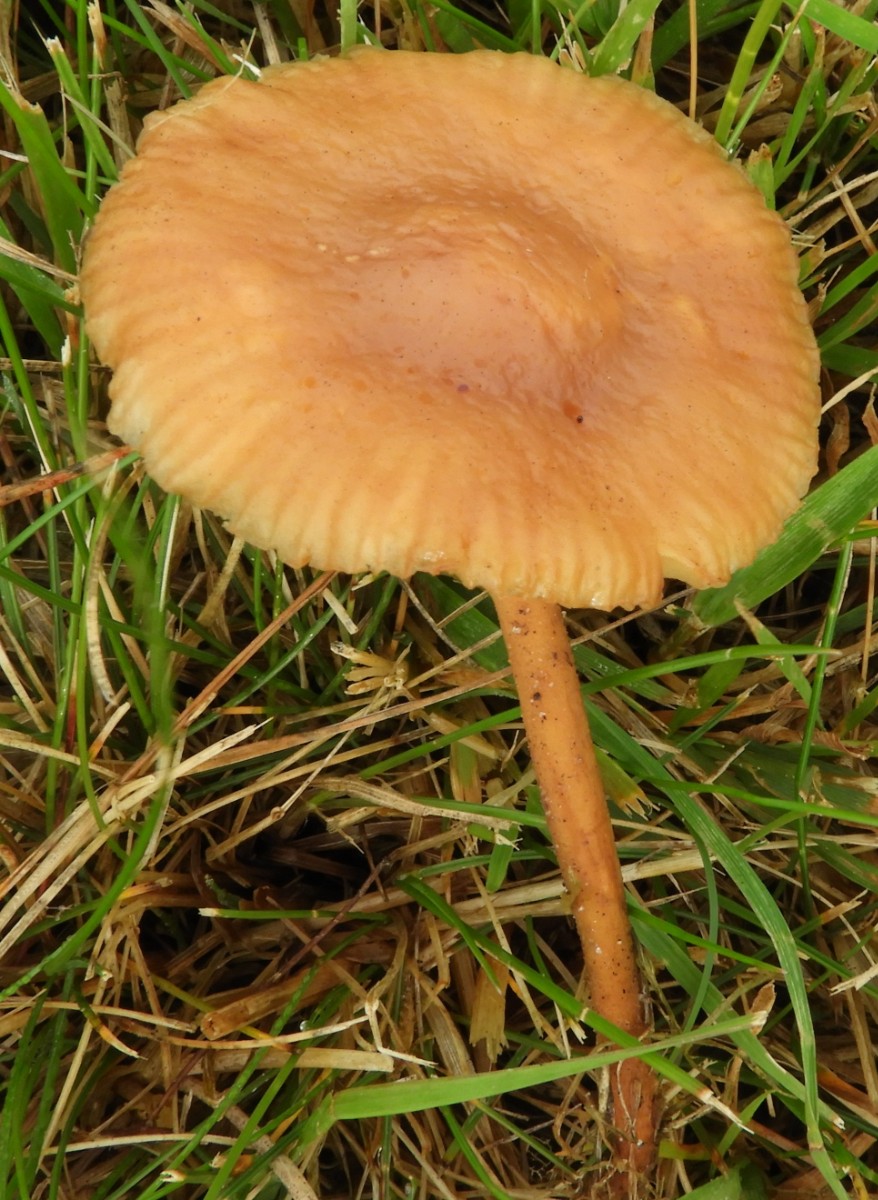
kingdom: Fungi
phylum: Basidiomycota
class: Agaricomycetes
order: Agaricales
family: Marasmiaceae
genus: Marasmius
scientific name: Marasmius oreades
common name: elledans-bruskhat
